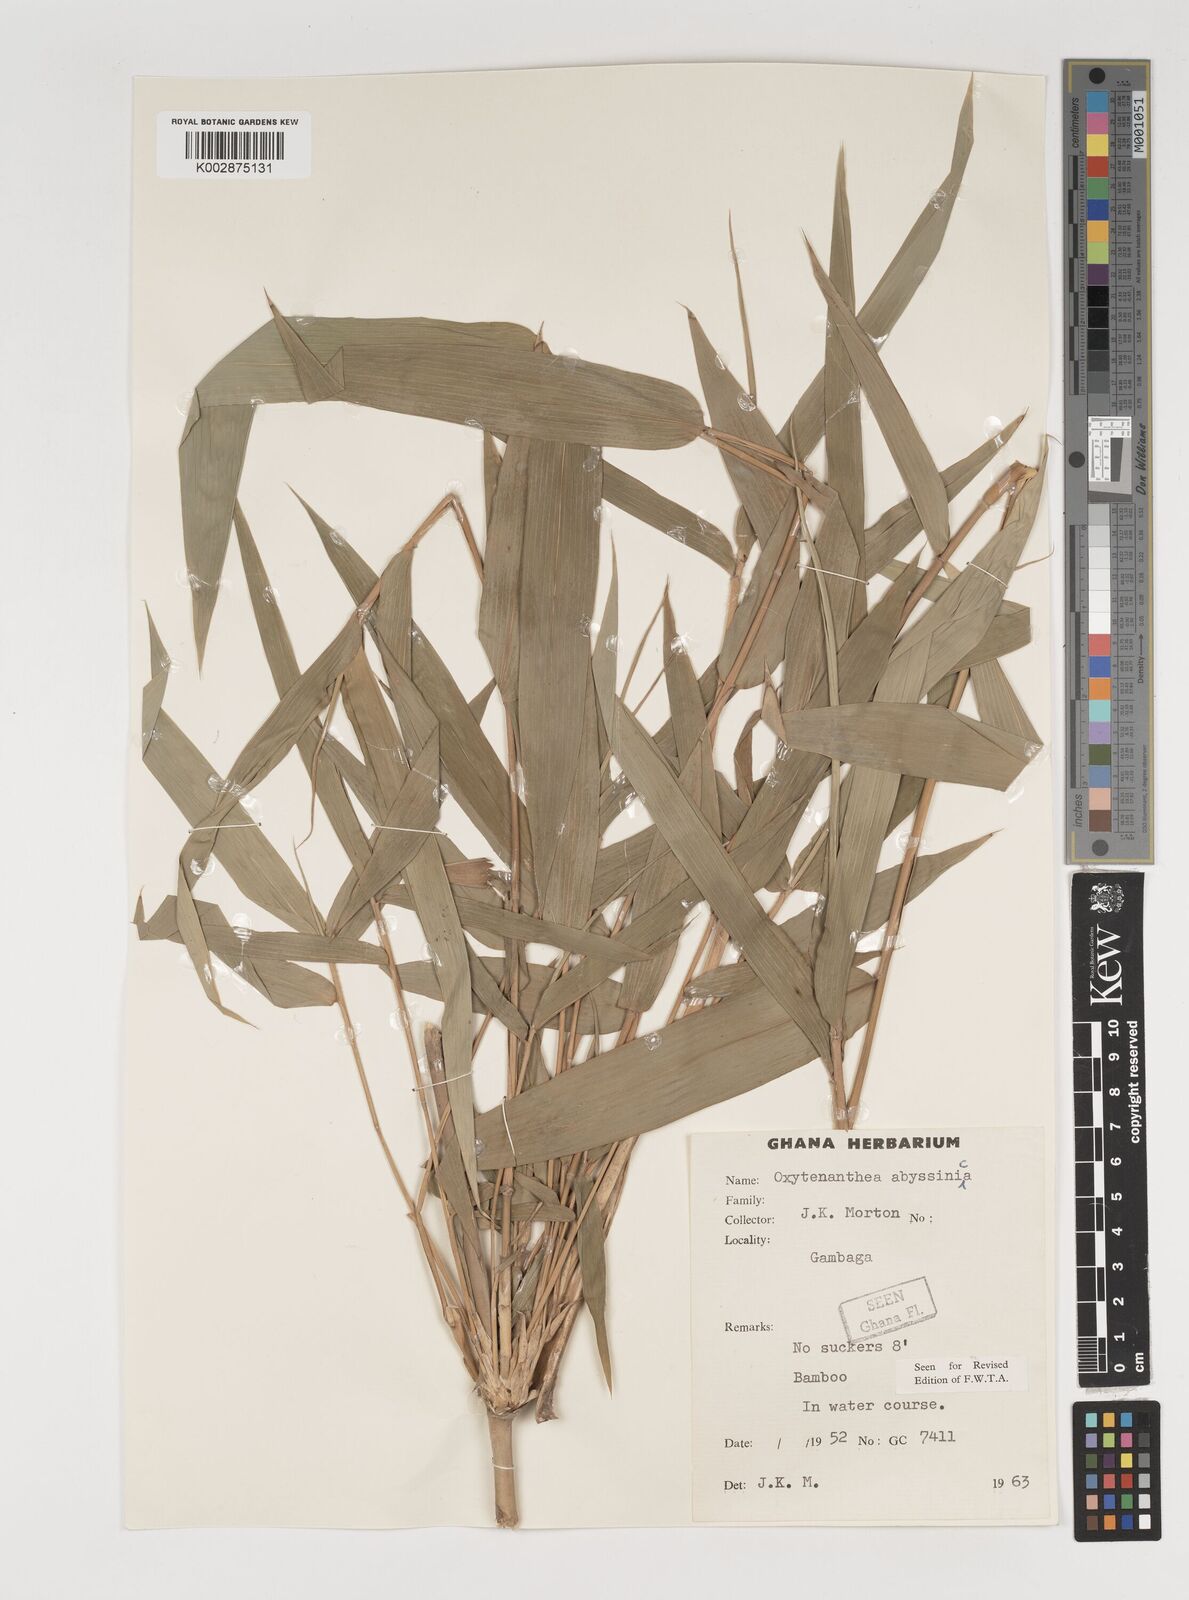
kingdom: Plantae
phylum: Tracheophyta
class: Liliopsida
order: Poales
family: Poaceae
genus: Oxytenanthera
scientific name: Oxytenanthera abyssinica
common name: Wine bamboo
